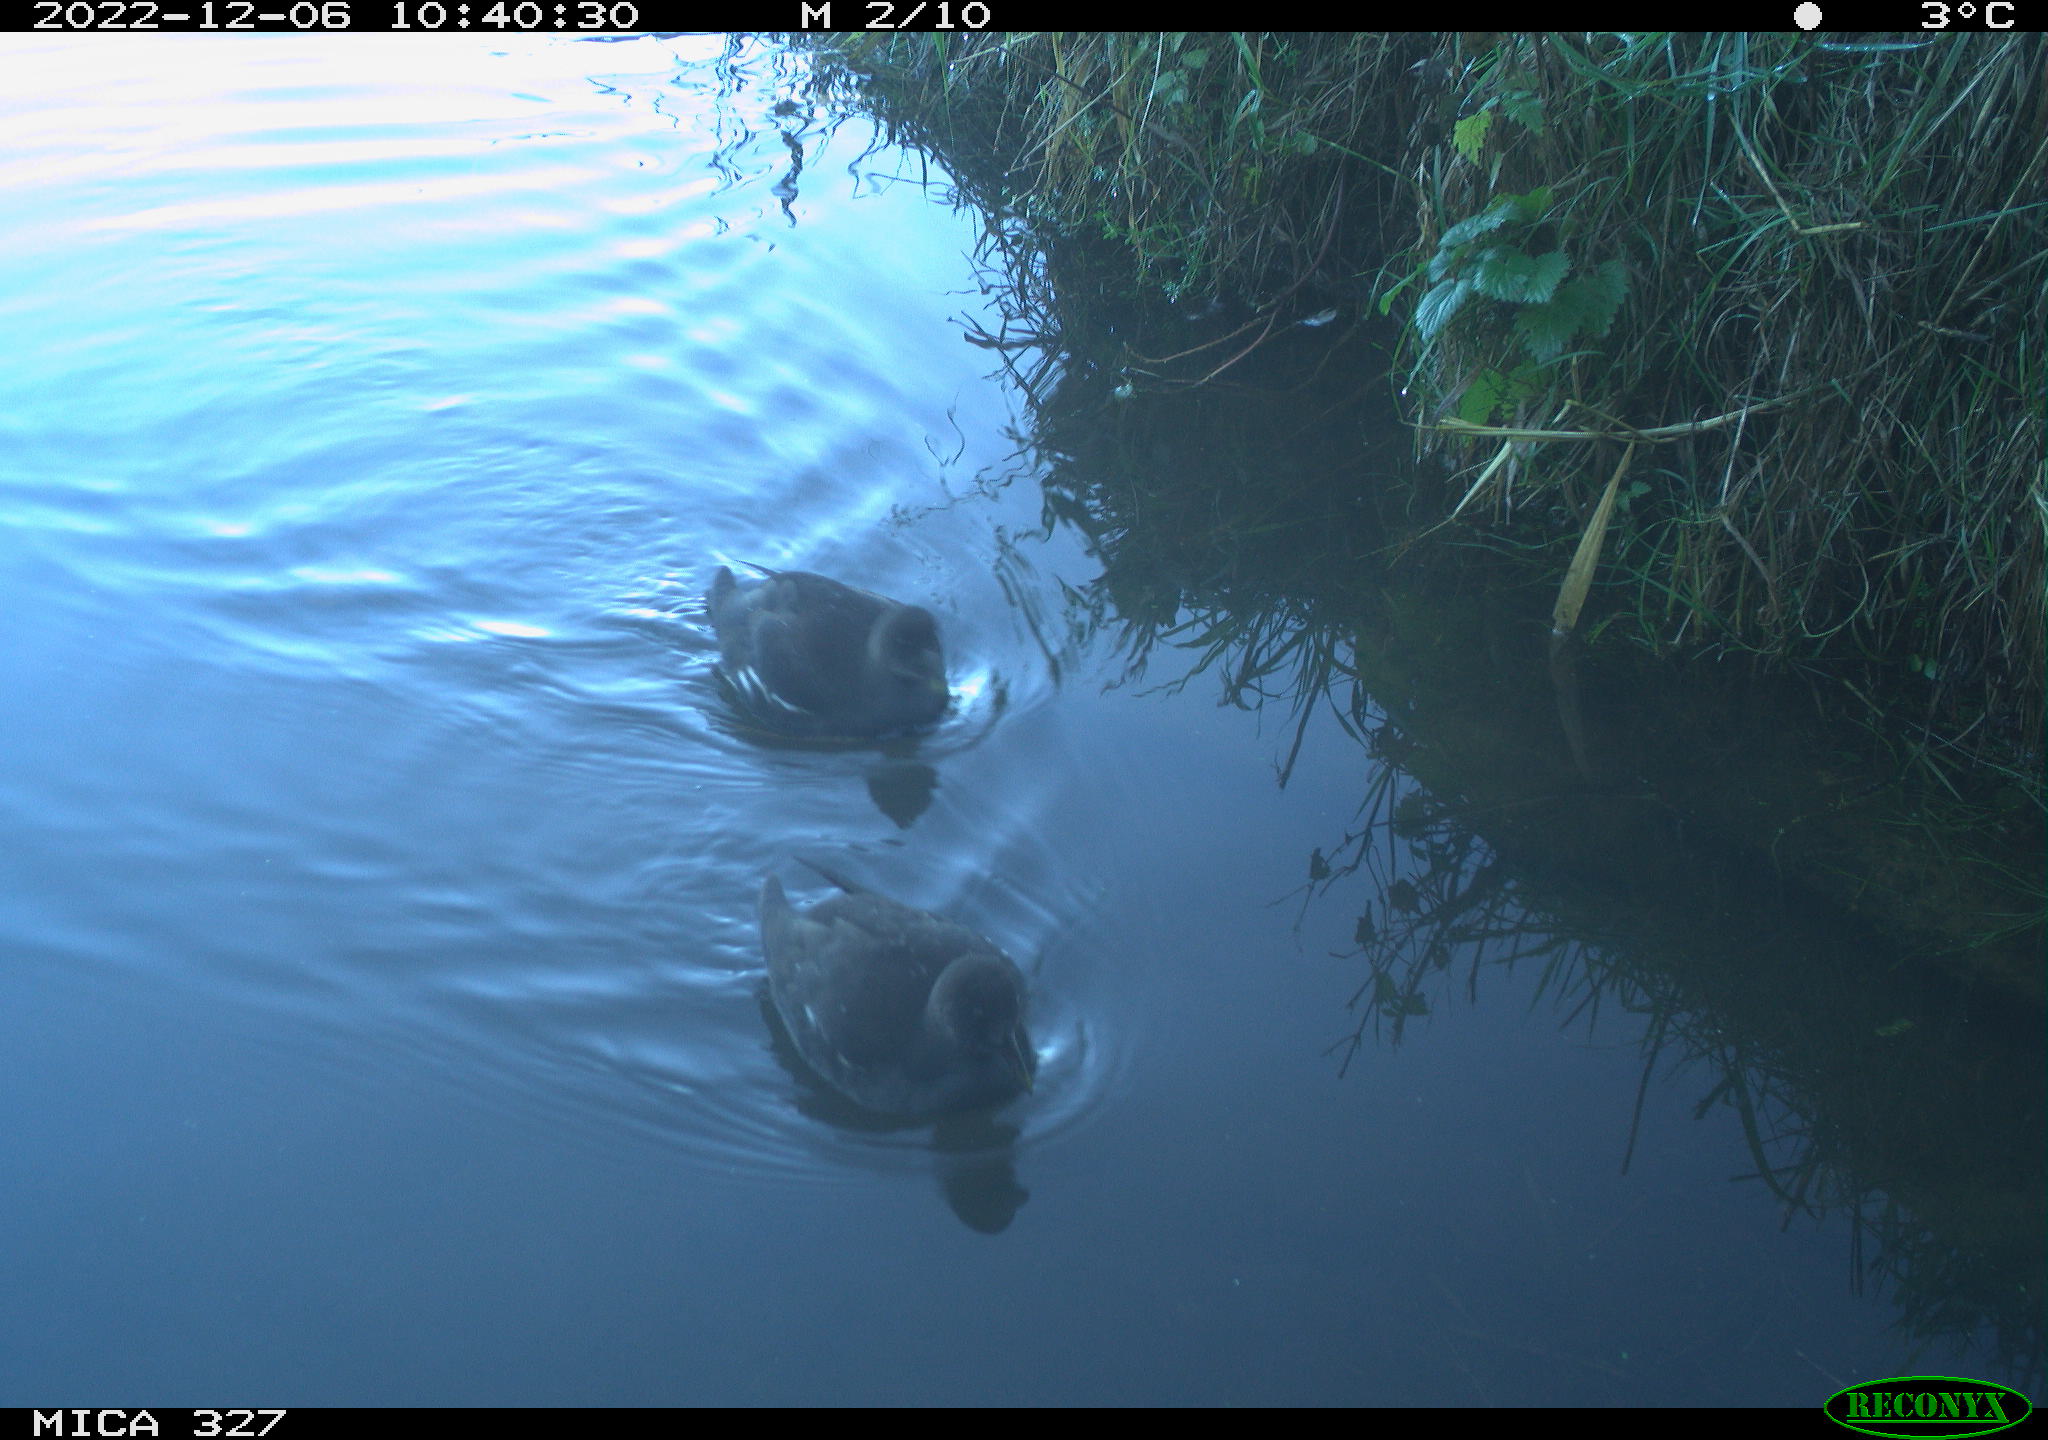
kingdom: Animalia
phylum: Chordata
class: Aves
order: Gruiformes
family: Rallidae
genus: Gallinula
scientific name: Gallinula chloropus
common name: Common moorhen
